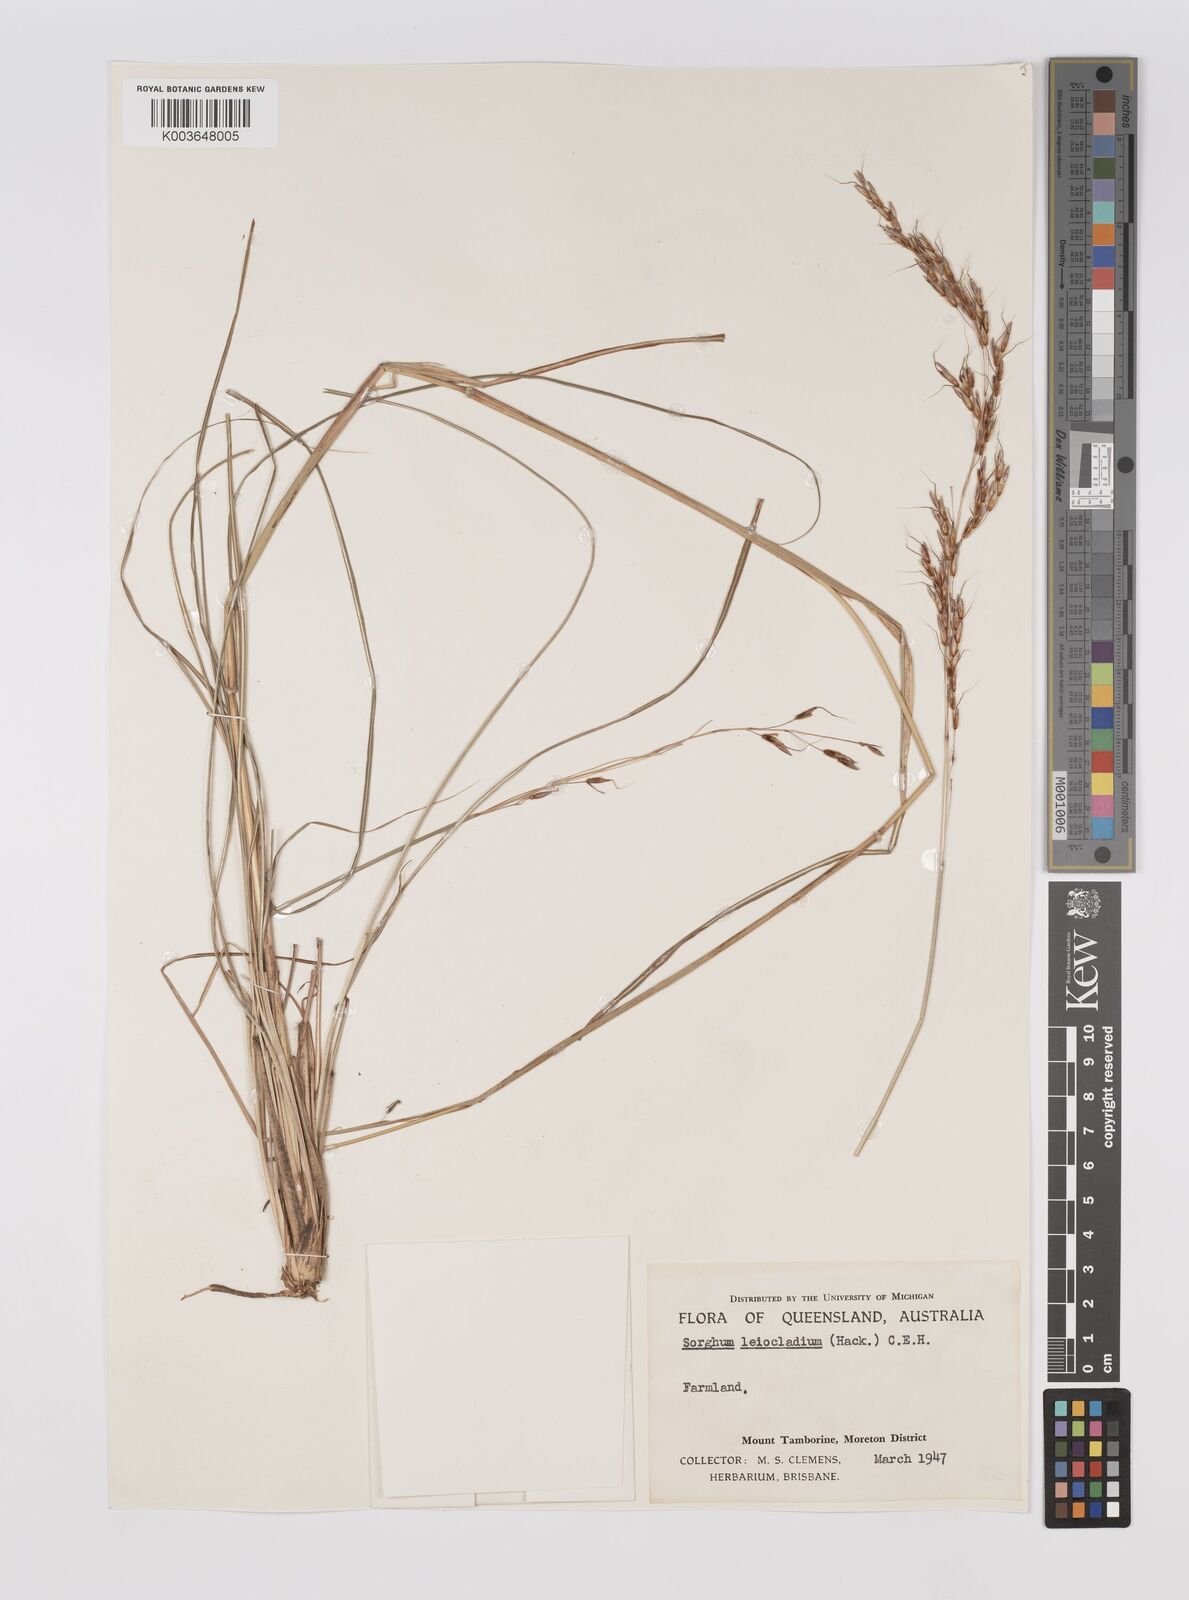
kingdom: Plantae
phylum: Tracheophyta
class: Liliopsida
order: Poales
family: Poaceae
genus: Sarga
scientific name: Sarga leioclada
